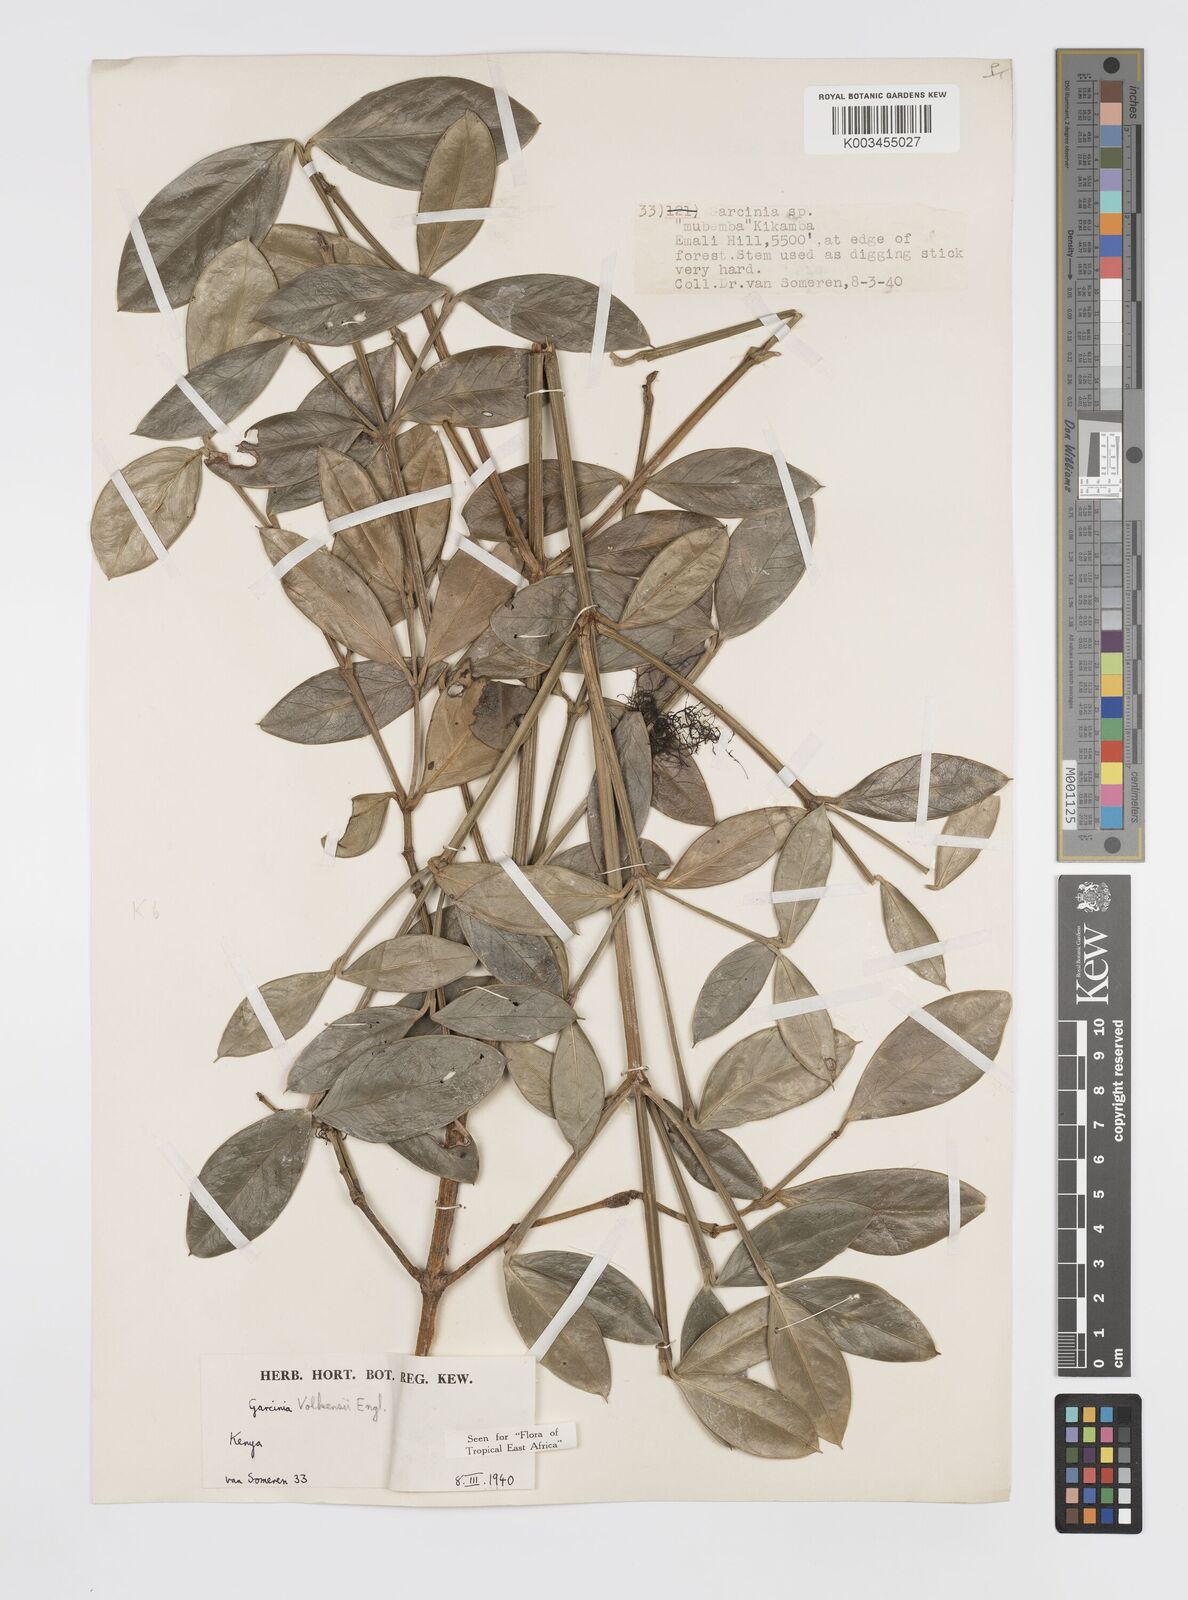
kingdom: Plantae
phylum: Tracheophyta
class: Magnoliopsida
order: Malpighiales
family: Clusiaceae
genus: Garcinia
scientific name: Garcinia volkensii
